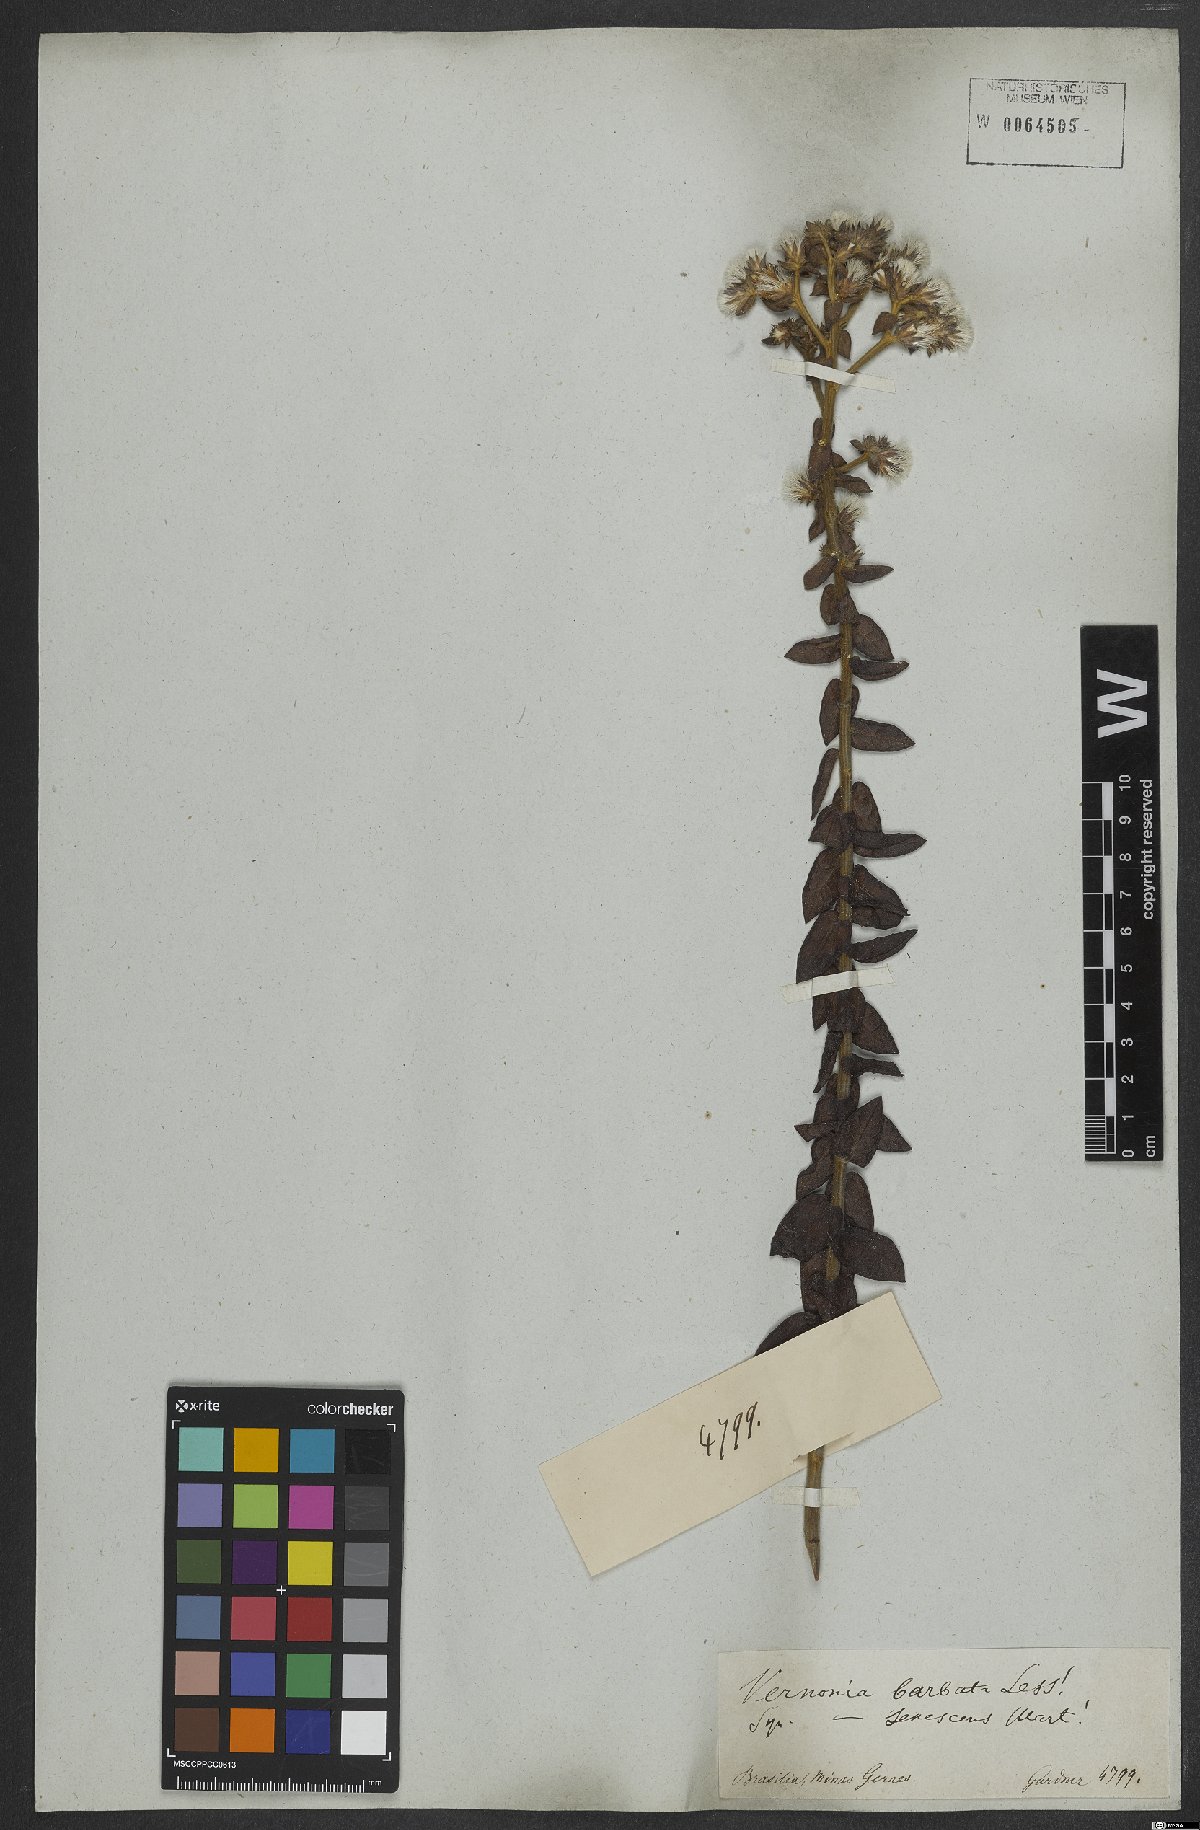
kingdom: Plantae
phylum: Tracheophyta
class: Magnoliopsida
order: Asterales
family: Asteraceae
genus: Lepidaploa
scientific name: Lepidaploa barbata
